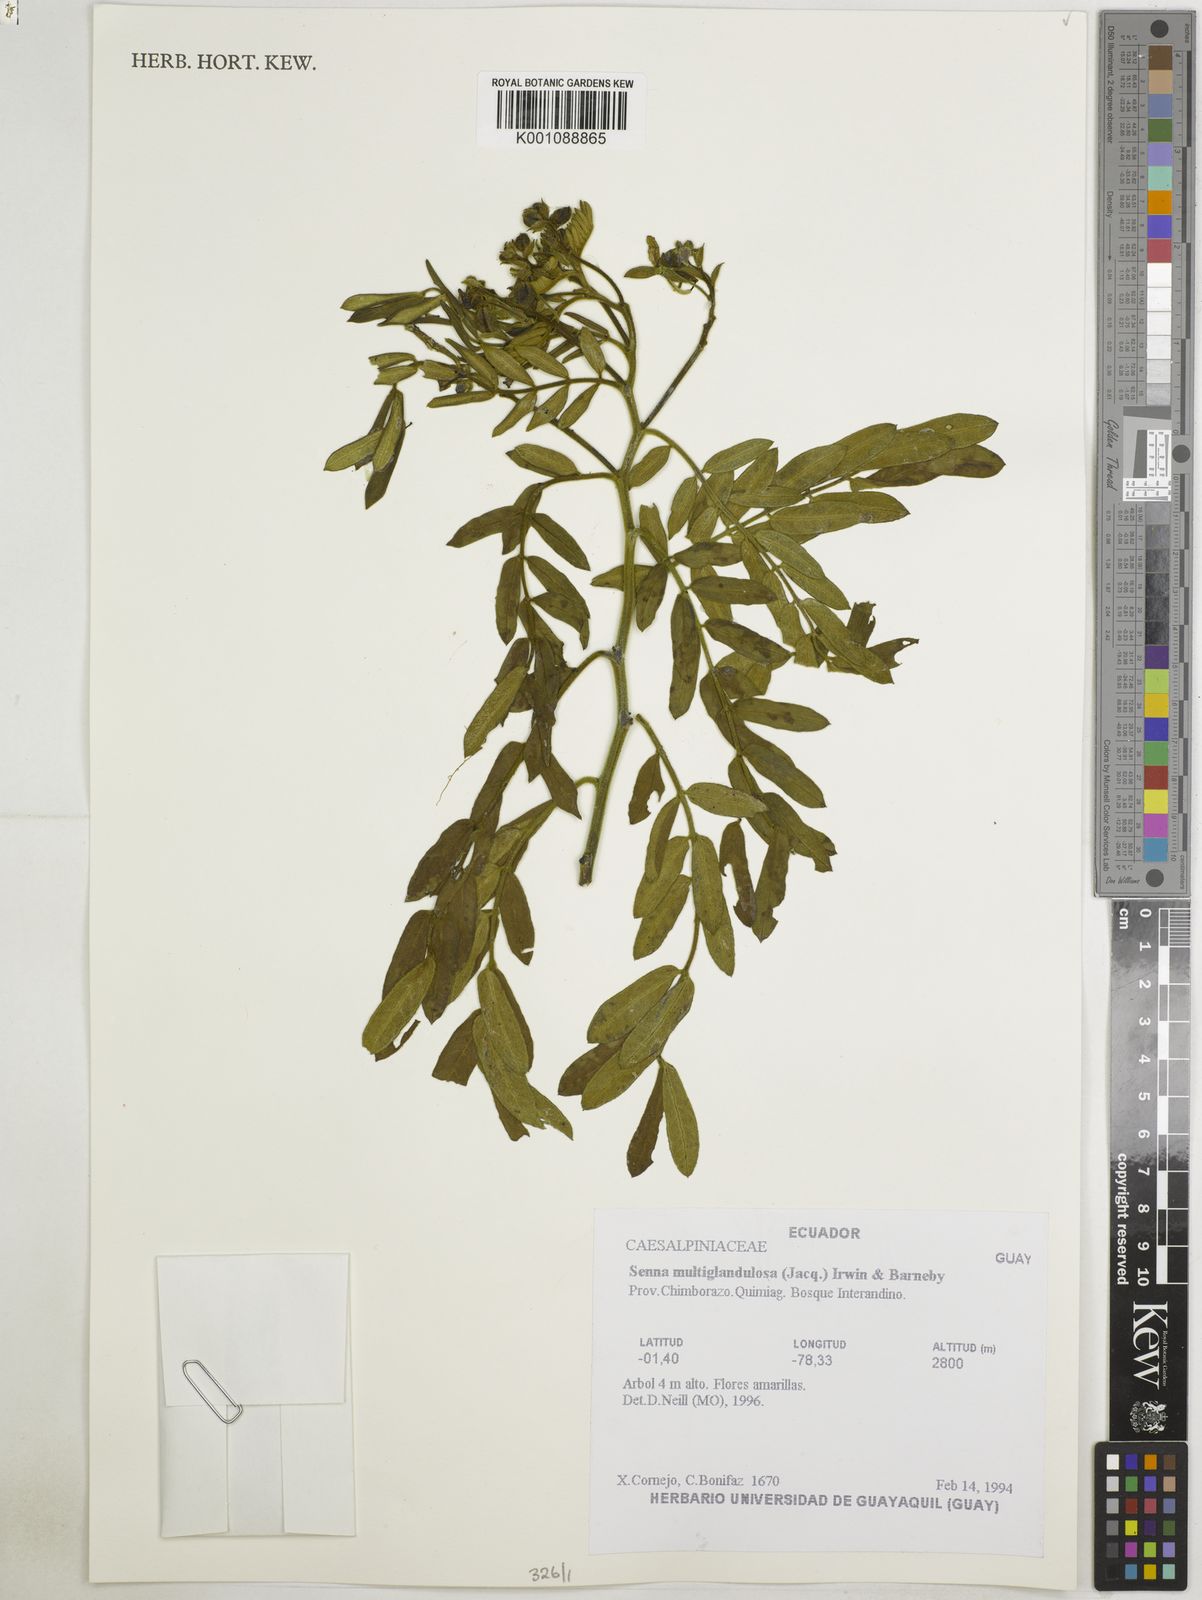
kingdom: Plantae
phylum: Tracheophyta
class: Magnoliopsida
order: Fabales
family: Fabaceae
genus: Senna
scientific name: Senna multiglandulosa
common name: Glandular senna
